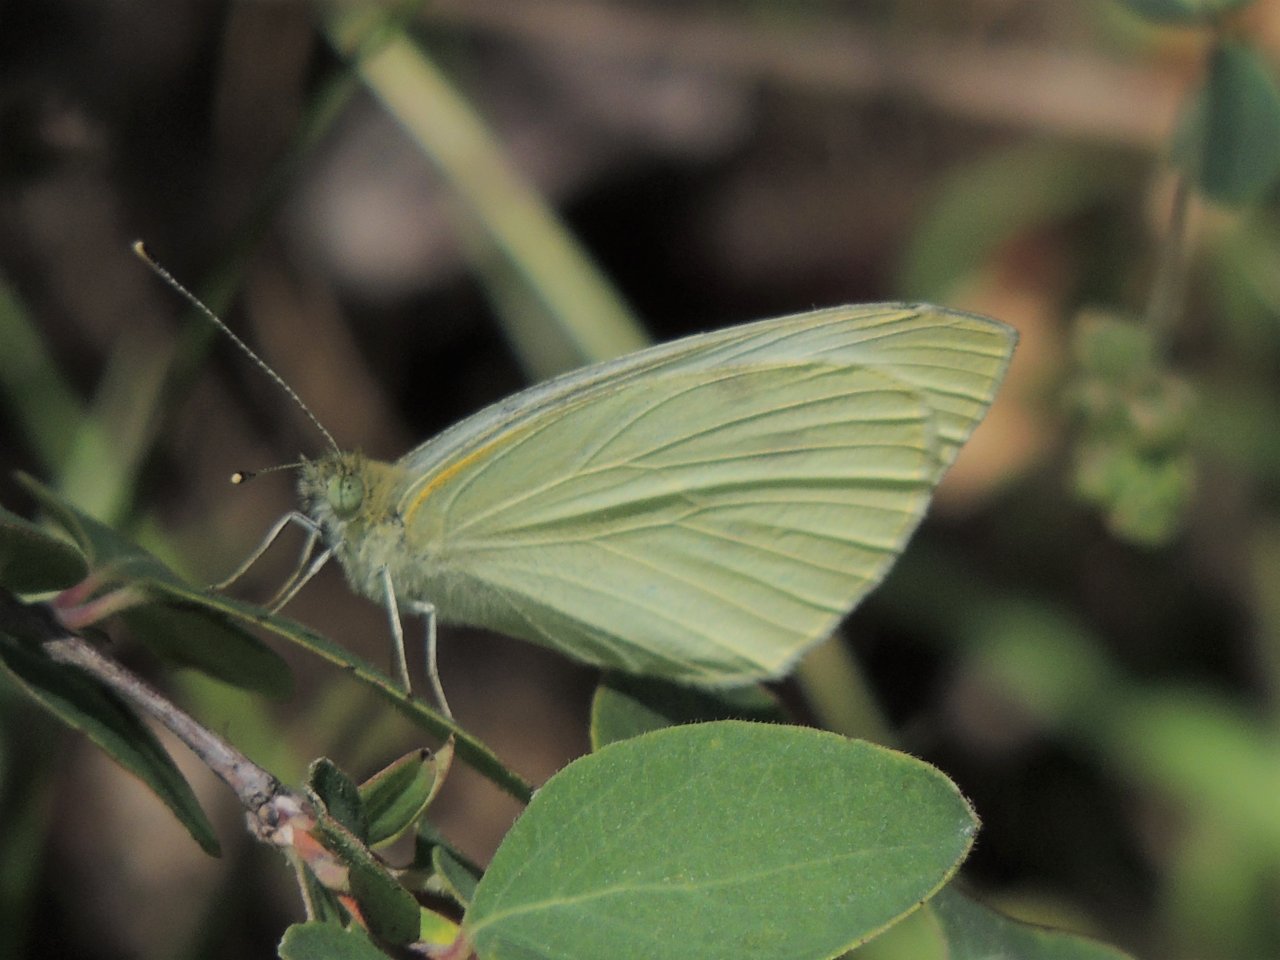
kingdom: Animalia
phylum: Arthropoda
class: Insecta
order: Lepidoptera
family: Pieridae
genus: Pieris
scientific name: Pieris marginalis
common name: Margined White
